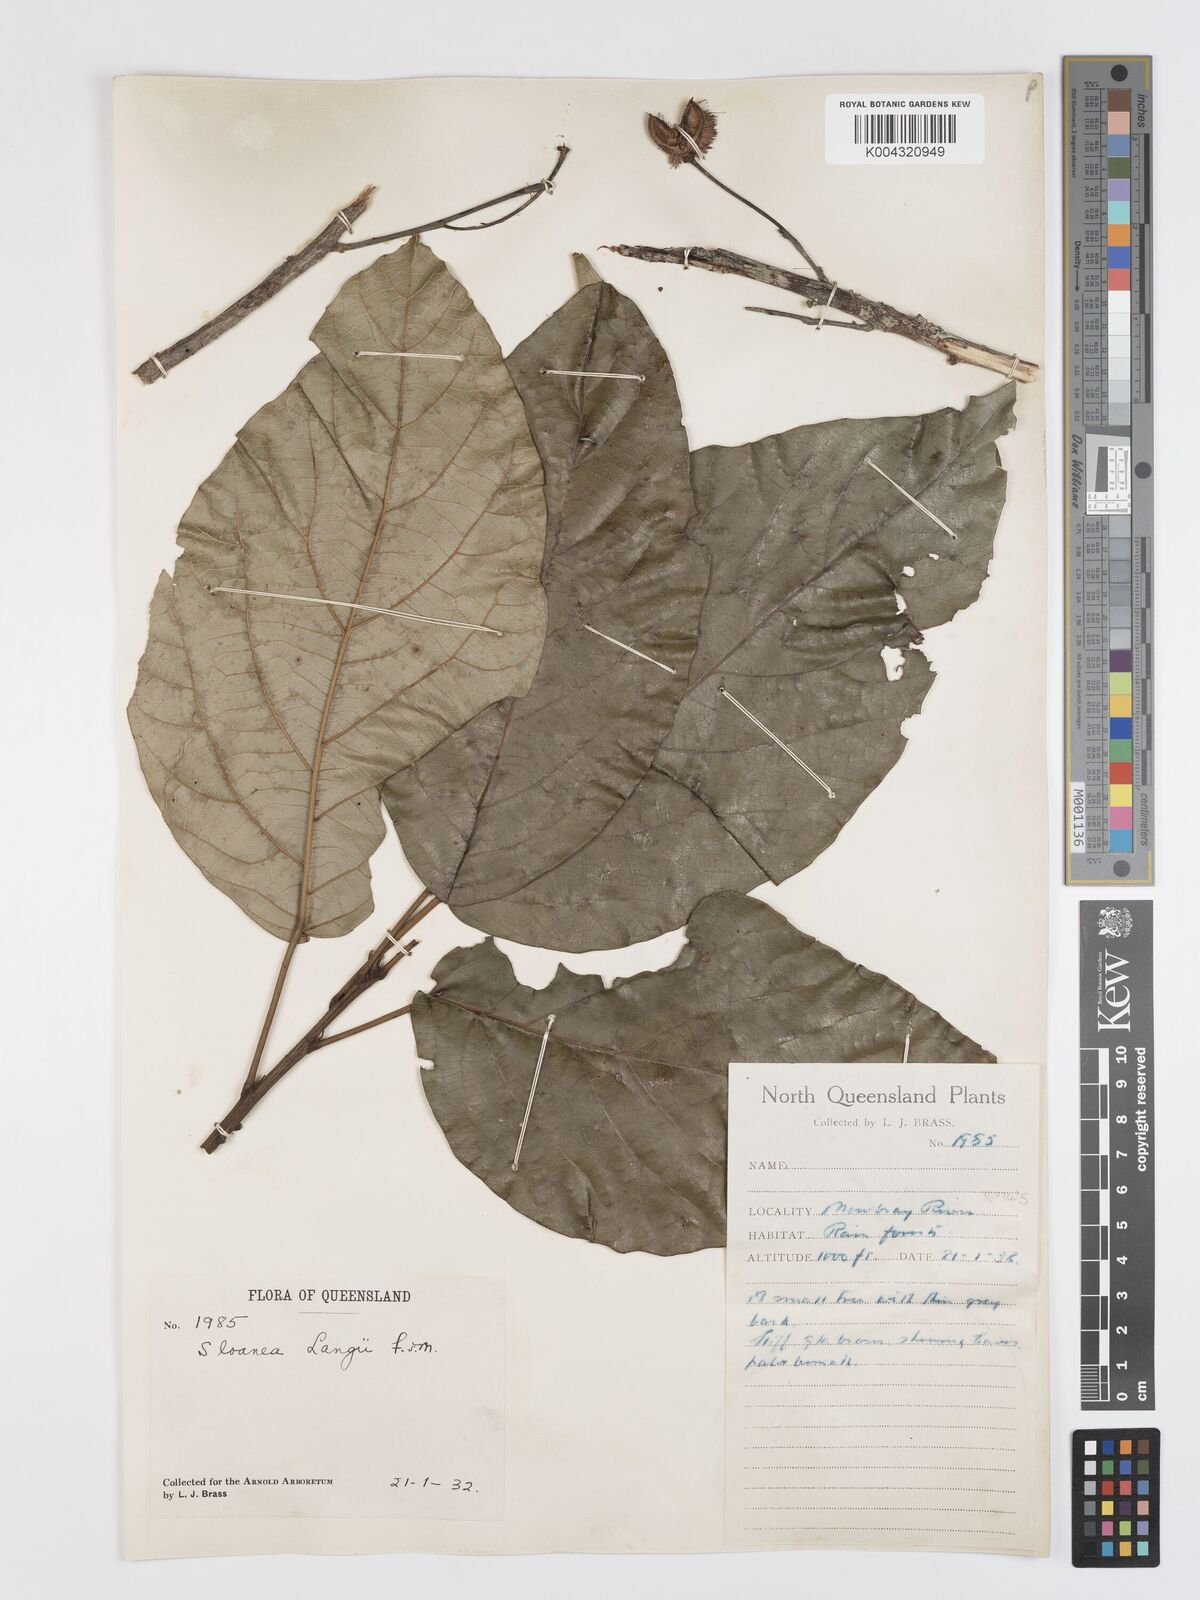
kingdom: Plantae
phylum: Tracheophyta
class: Magnoliopsida
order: Oxalidales
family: Elaeocarpaceae
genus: Sloanea
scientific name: Sloanea langii
